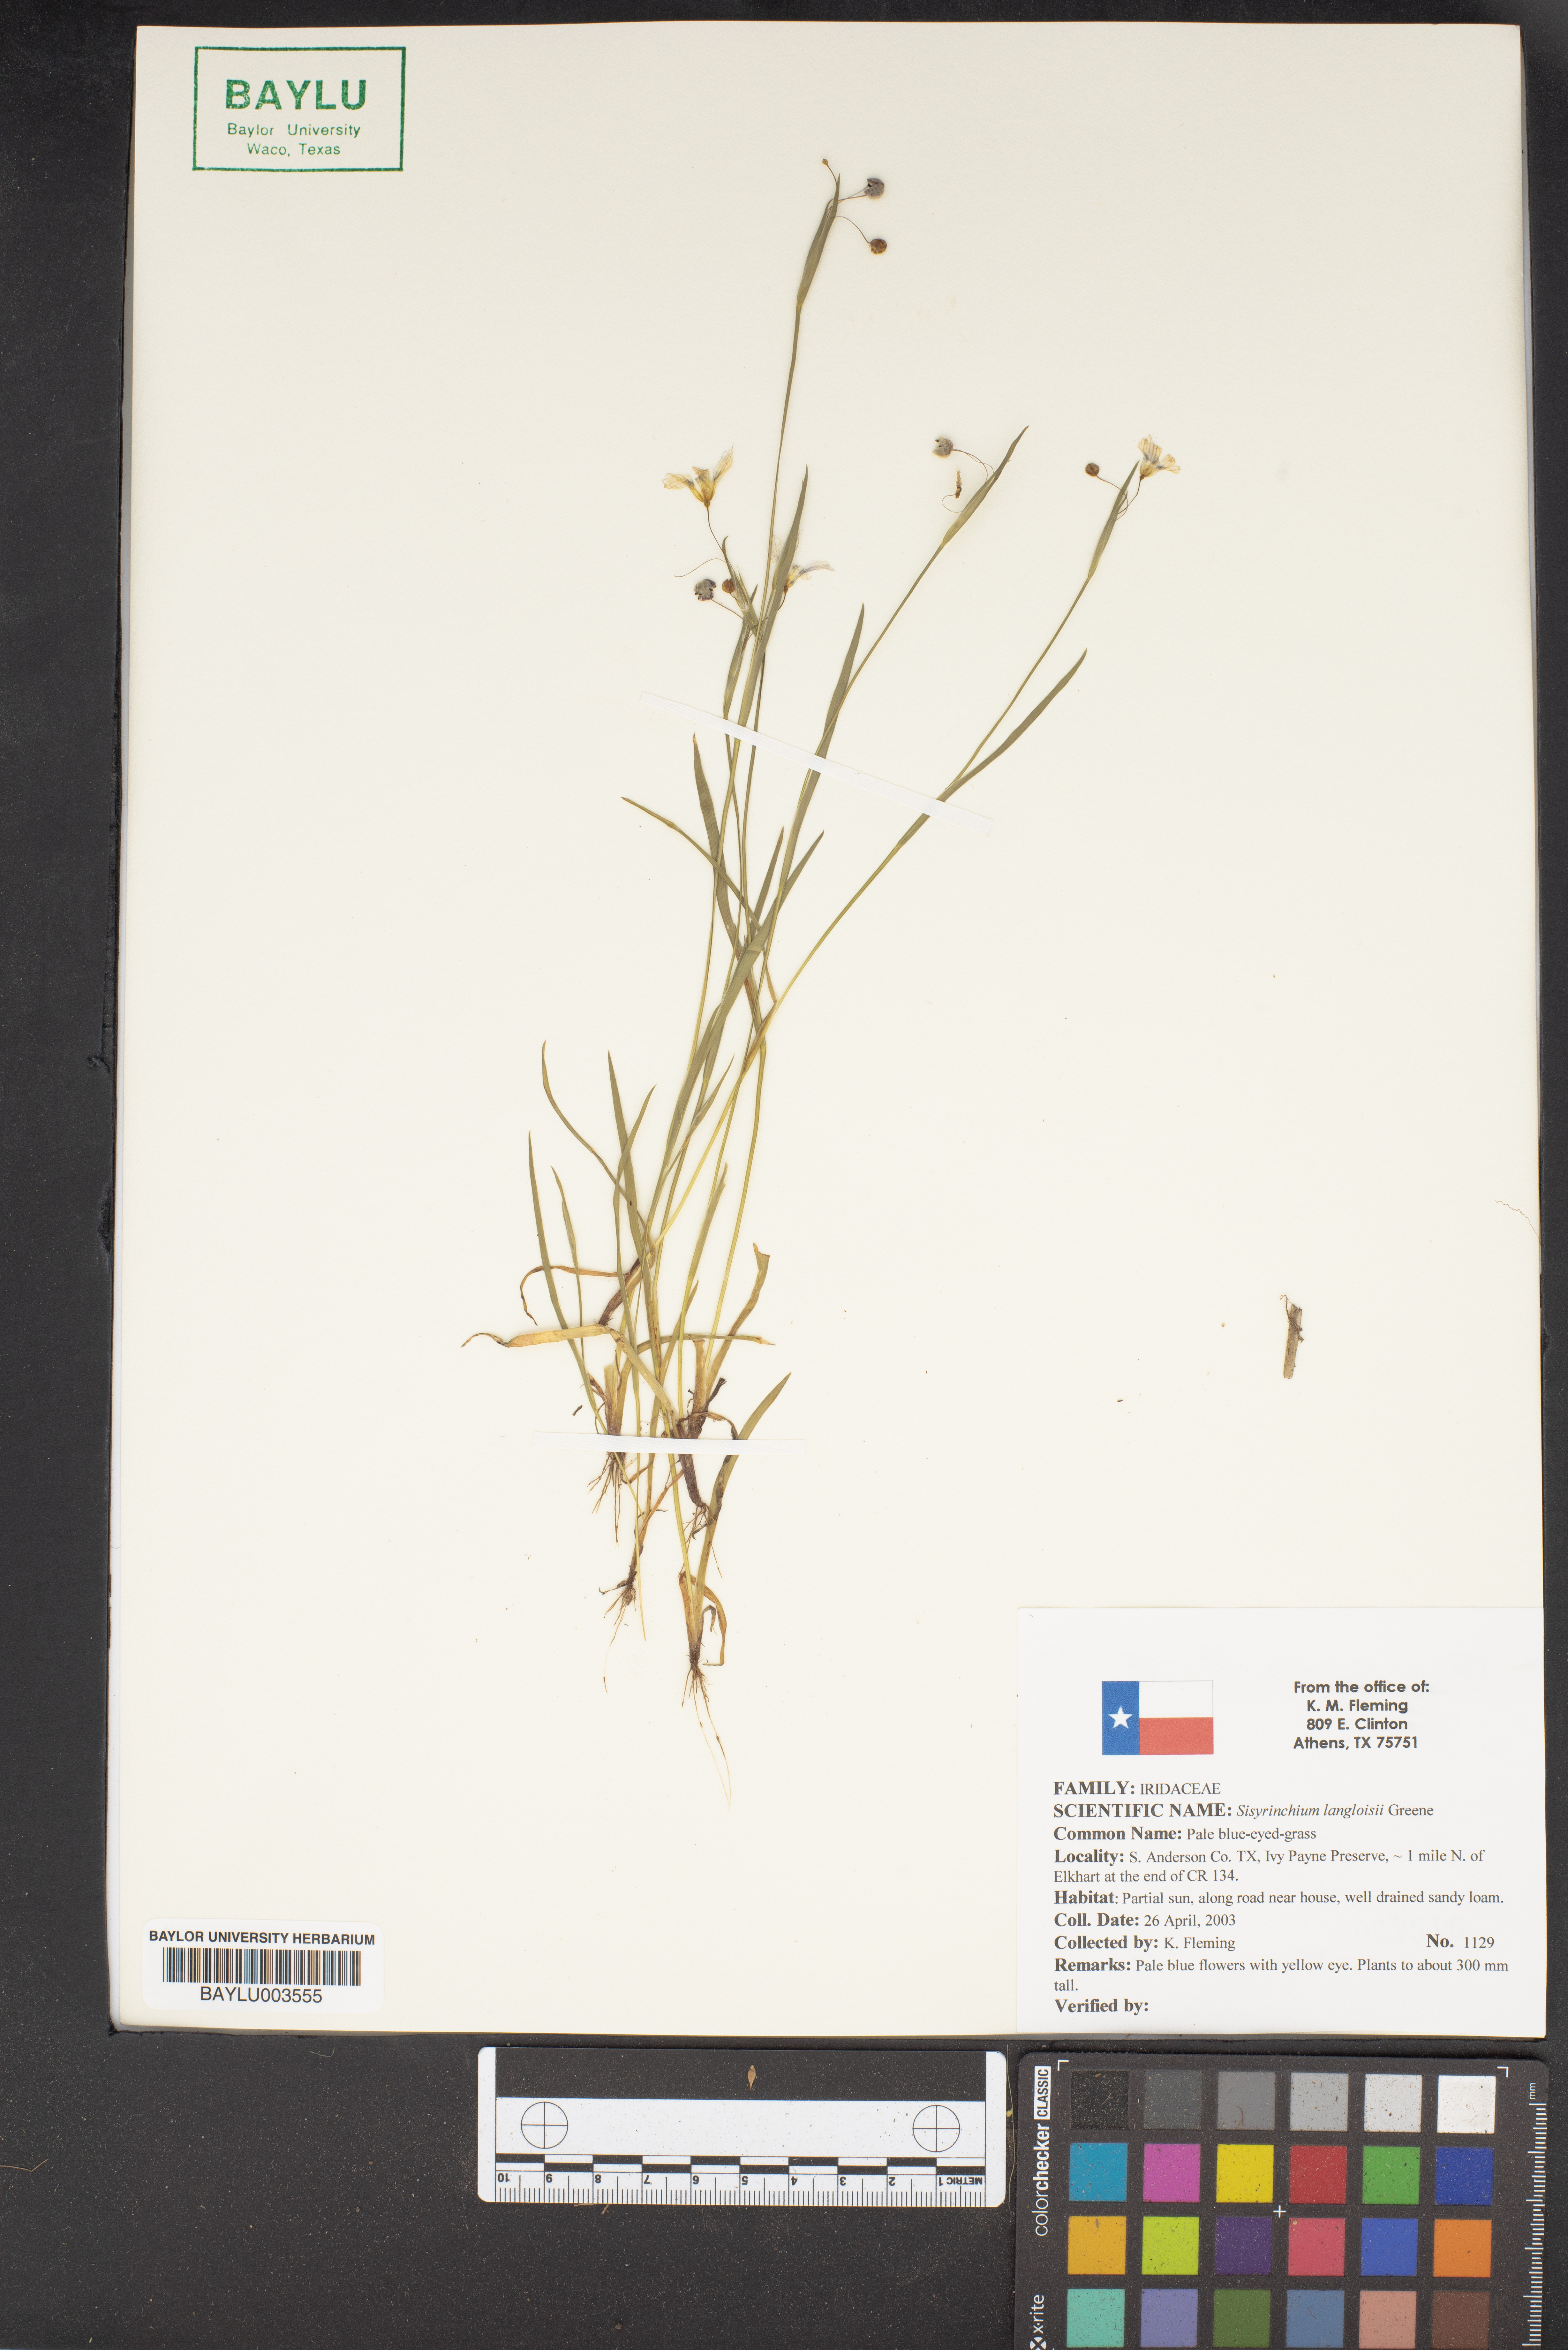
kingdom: Plantae
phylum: Tracheophyta
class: Liliopsida
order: Asparagales
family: Iridaceae
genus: Sisyrinchium
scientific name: Sisyrinchium langloisii
